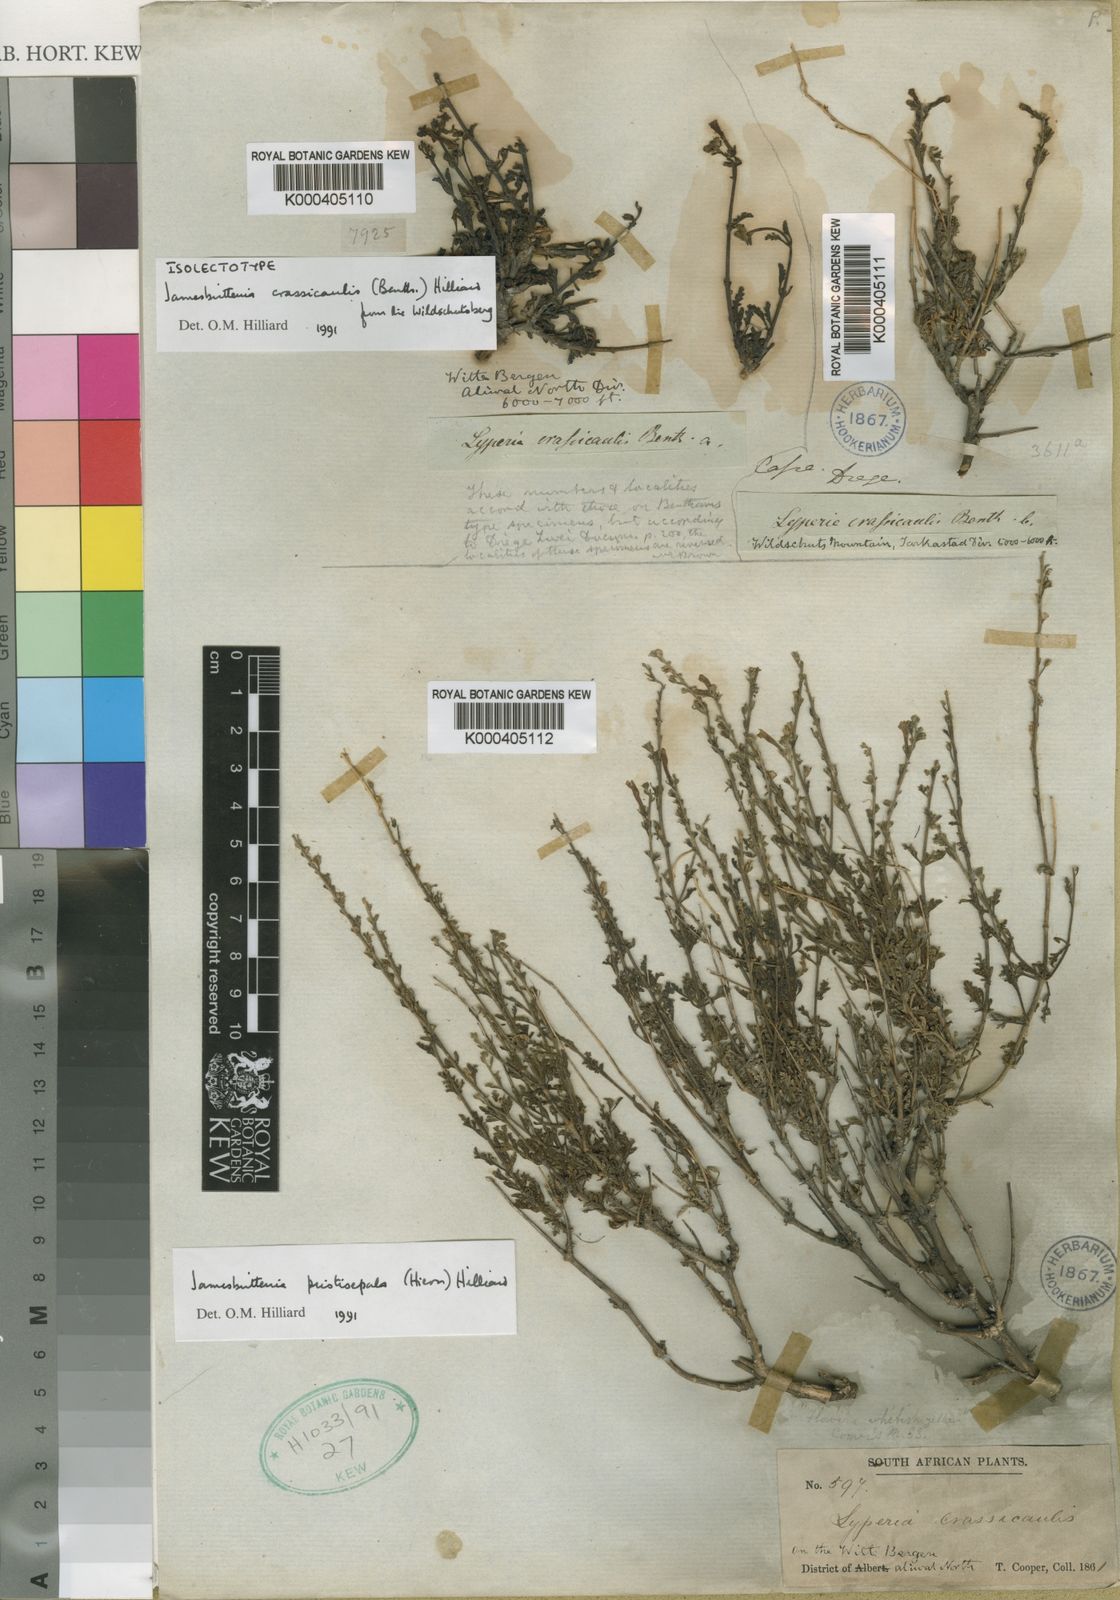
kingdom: Plantae
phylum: Tracheophyta
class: Magnoliopsida
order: Lamiales
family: Scrophulariaceae
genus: Jamesbrittenia
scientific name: Jamesbrittenia crassicaulis
